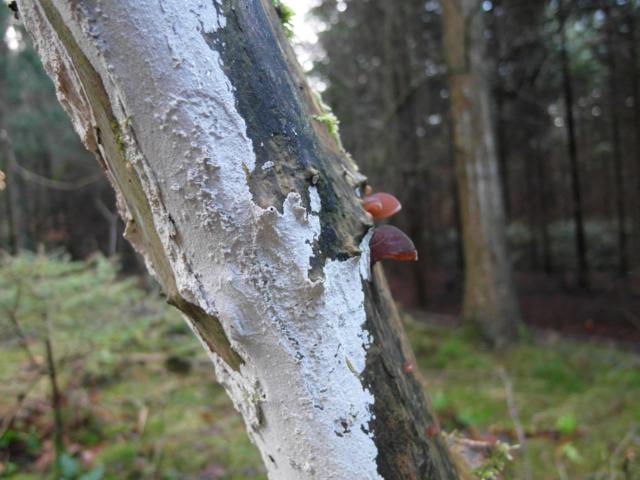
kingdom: Fungi
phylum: Basidiomycota
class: Agaricomycetes
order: Corticiales
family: Corticiaceae
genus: Lyomyces
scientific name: Lyomyces sambuci
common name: almindelig hyldehinde
